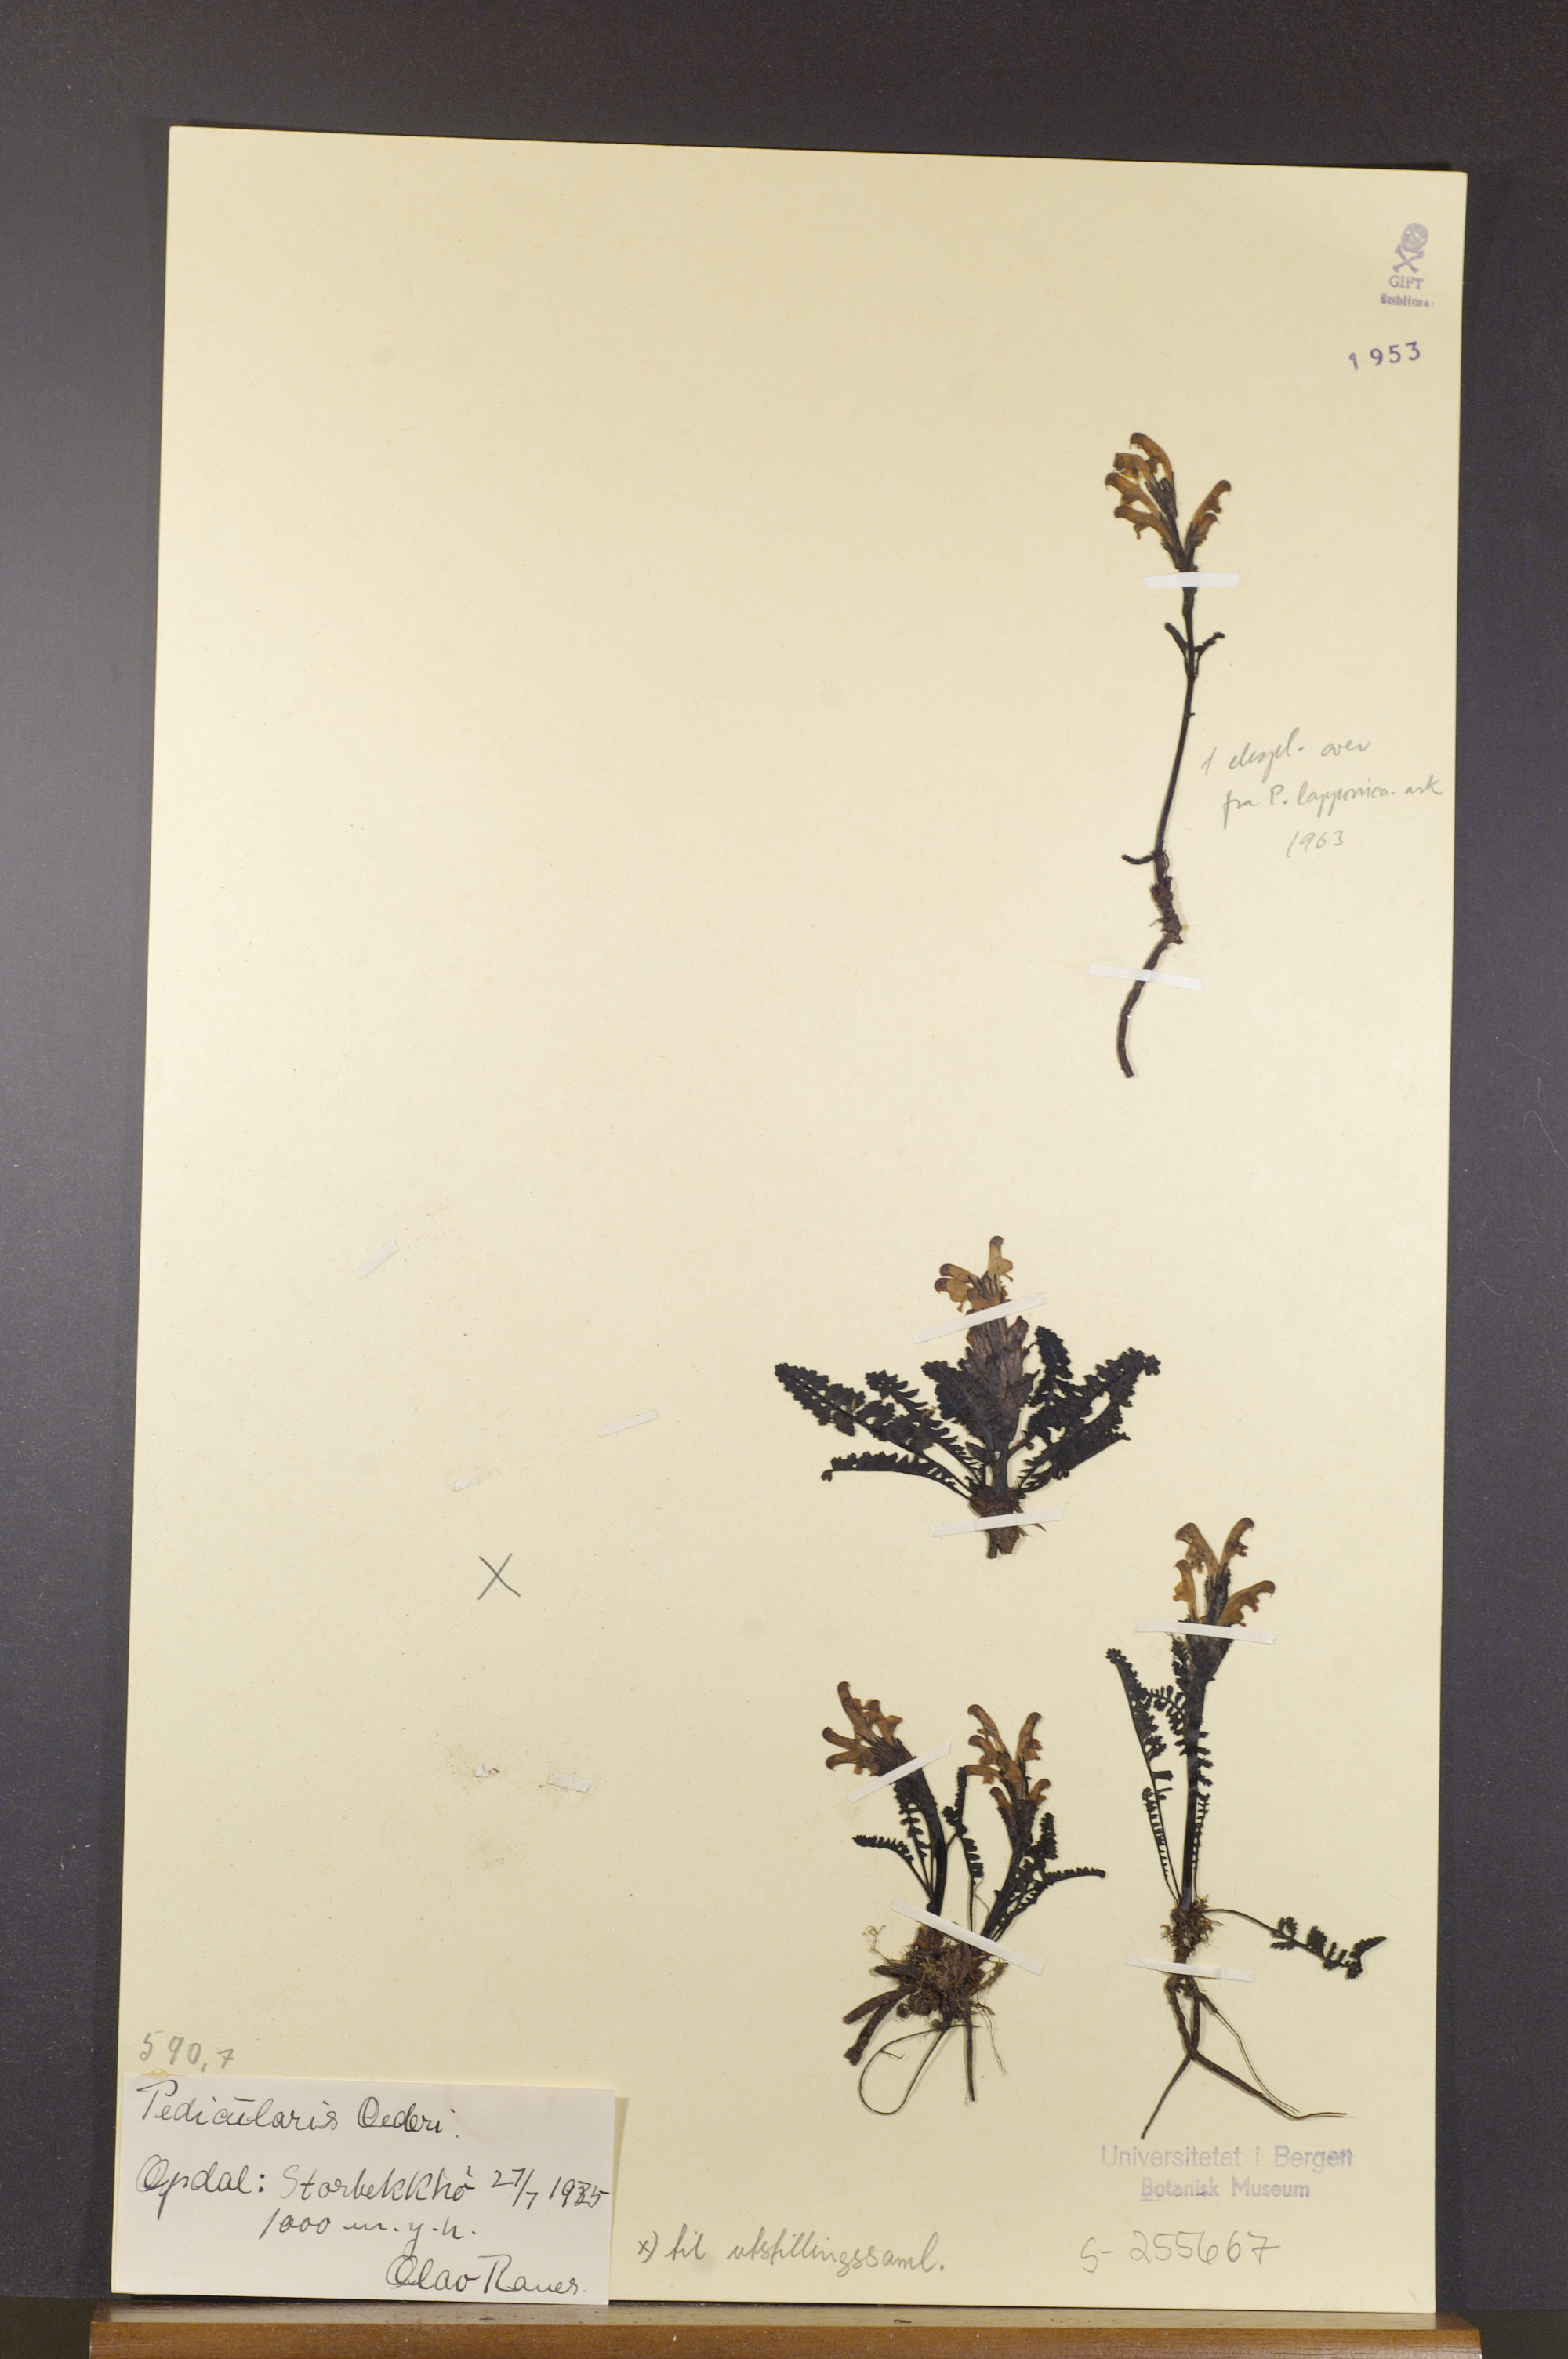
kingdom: Plantae
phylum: Tracheophyta
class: Magnoliopsida
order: Lamiales
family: Orobanchaceae
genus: Pedicularis
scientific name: Pedicularis oederi
